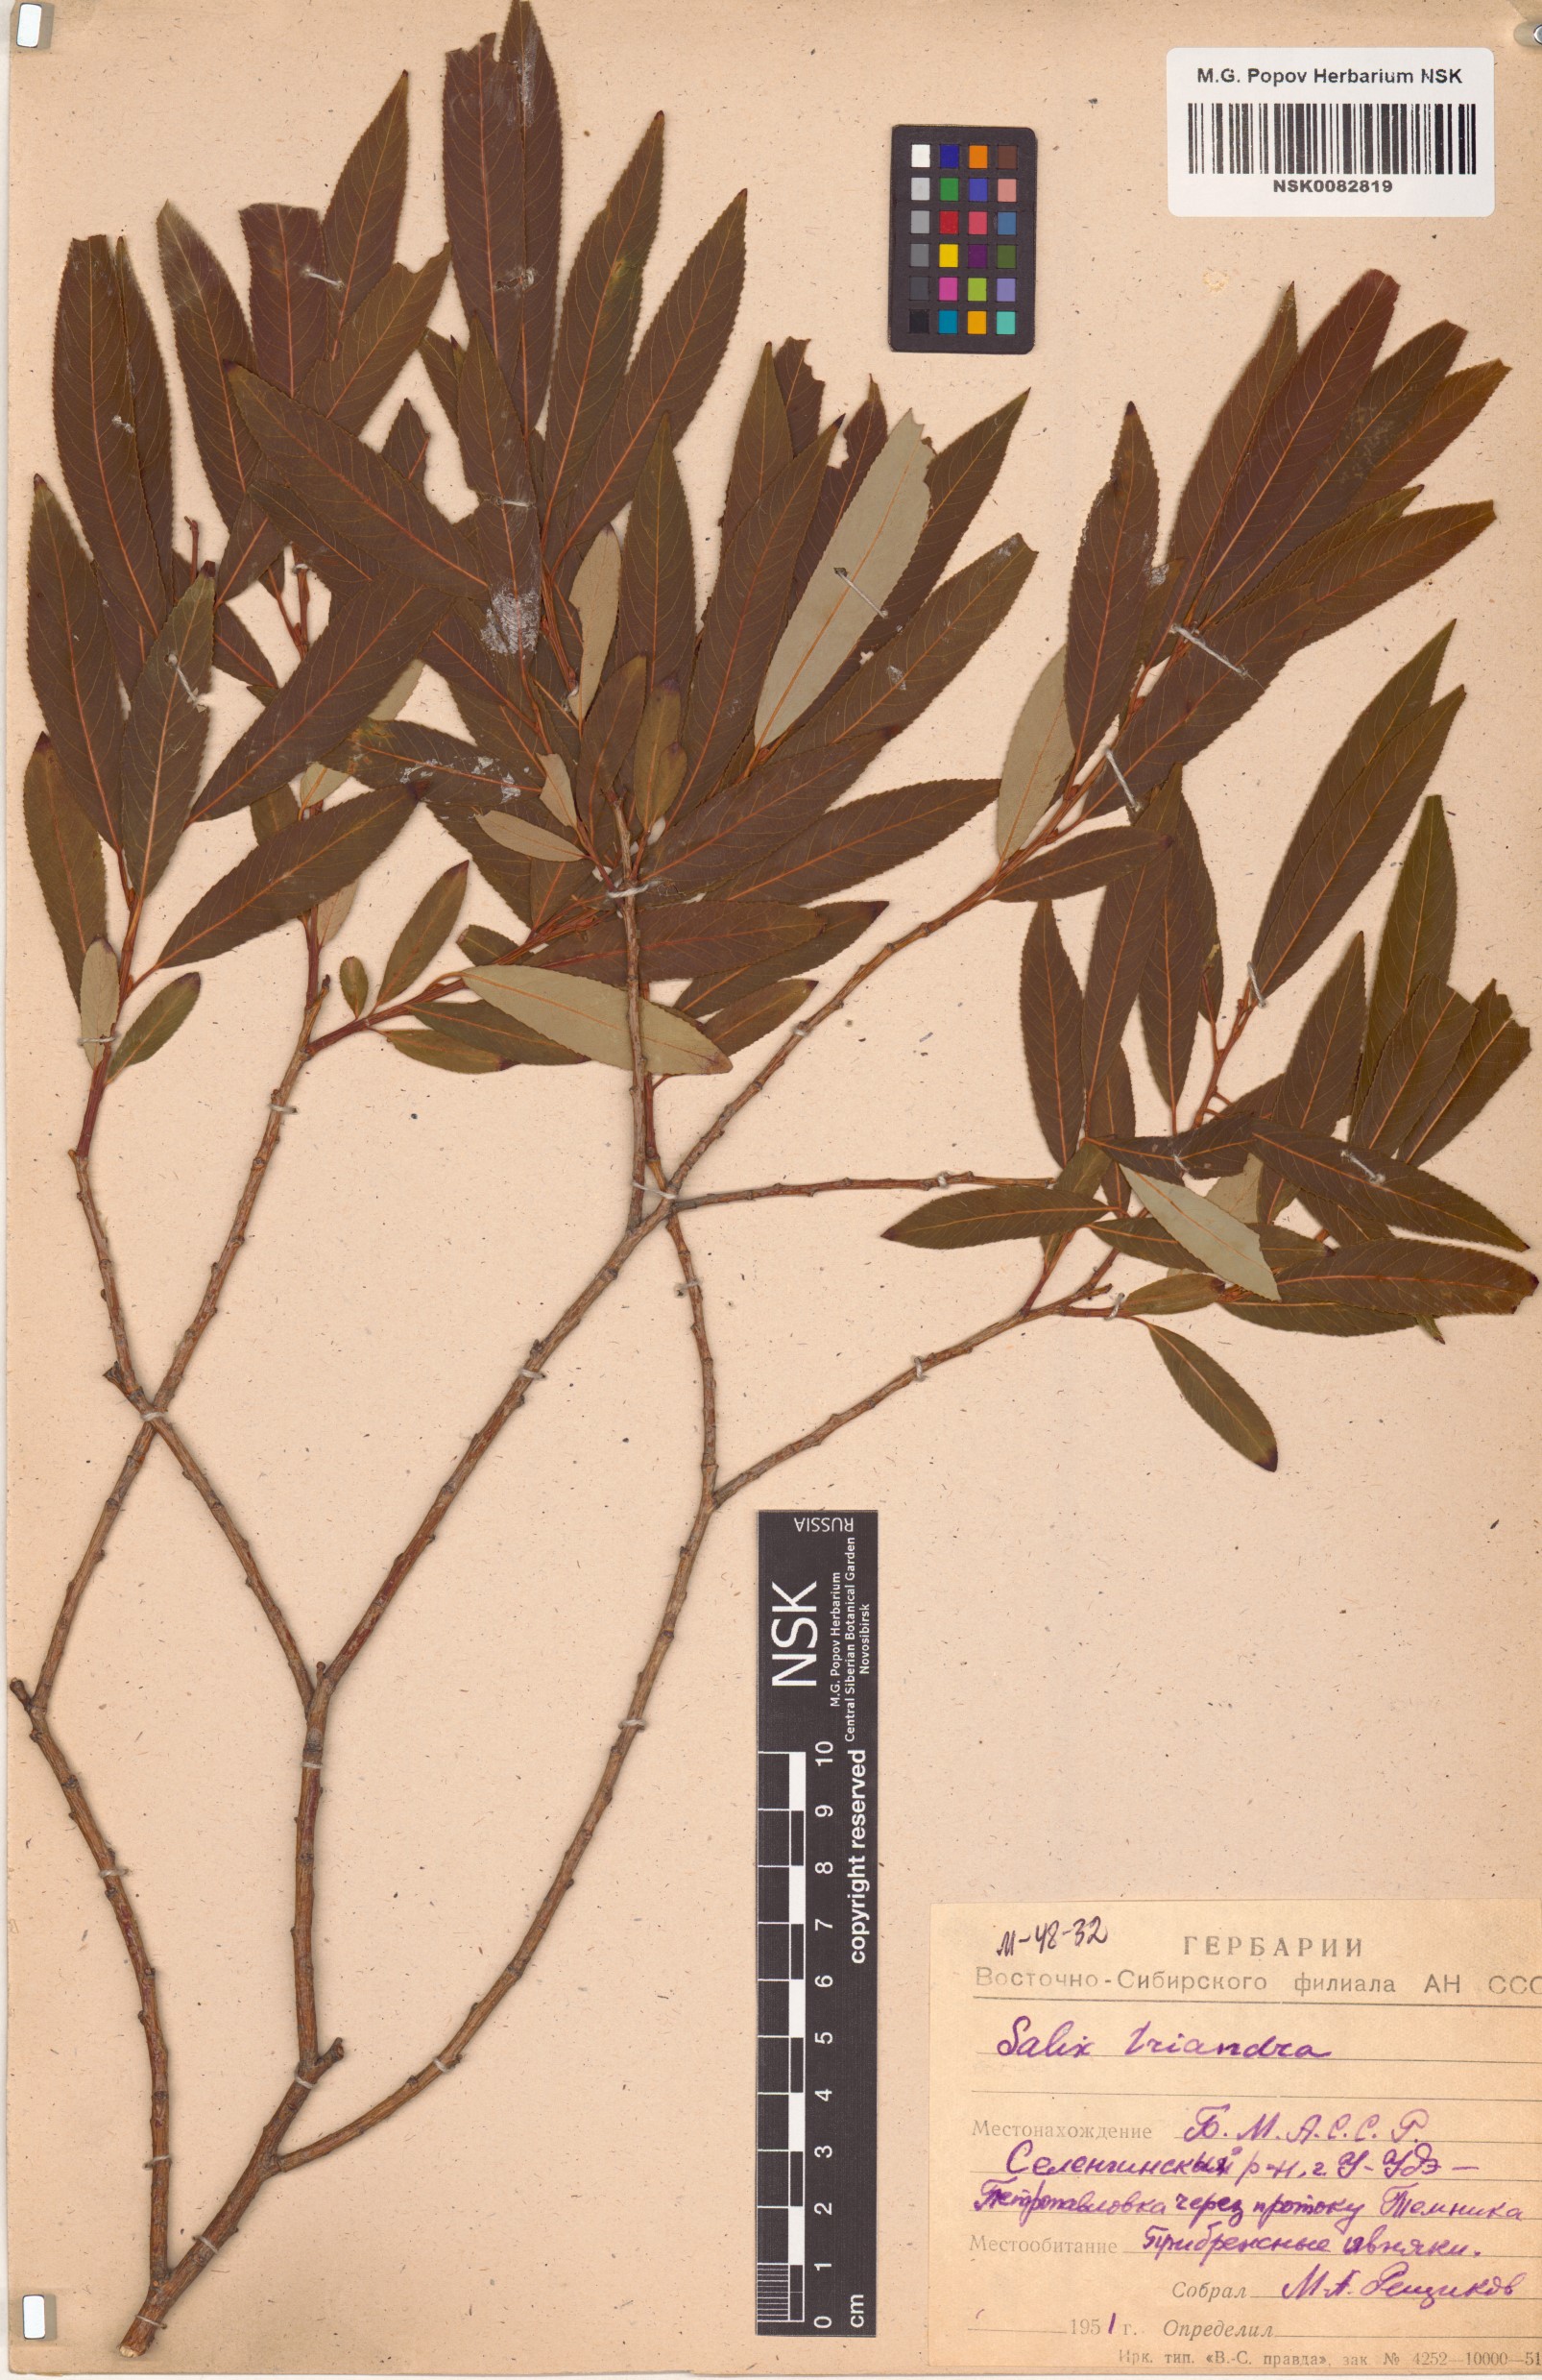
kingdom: Plantae
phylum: Tracheophyta
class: Magnoliopsida
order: Malpighiales
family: Salicaceae
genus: Salix
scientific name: Salix triandra
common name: Almond willow
